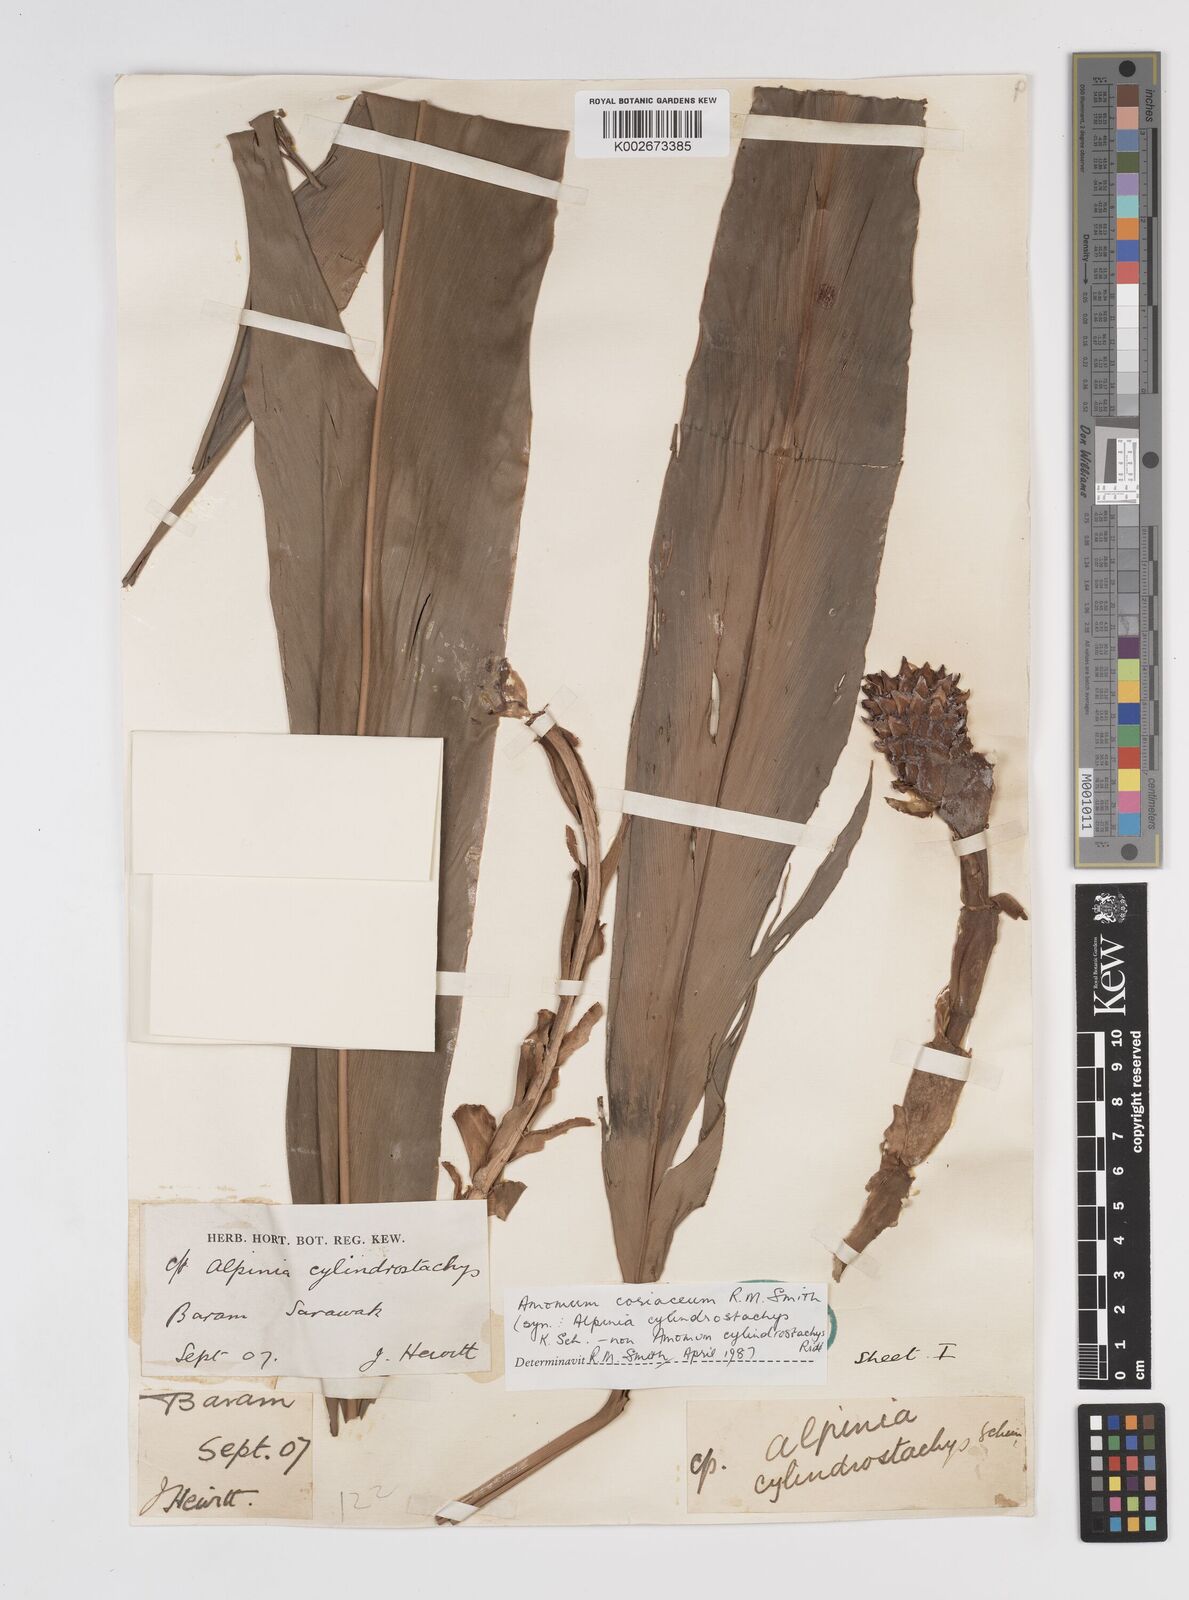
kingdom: Plantae
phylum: Tracheophyta
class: Liliopsida
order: Zingiberales
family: Zingiberaceae
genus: Conamomum
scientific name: Conamomum cylindrostachys
